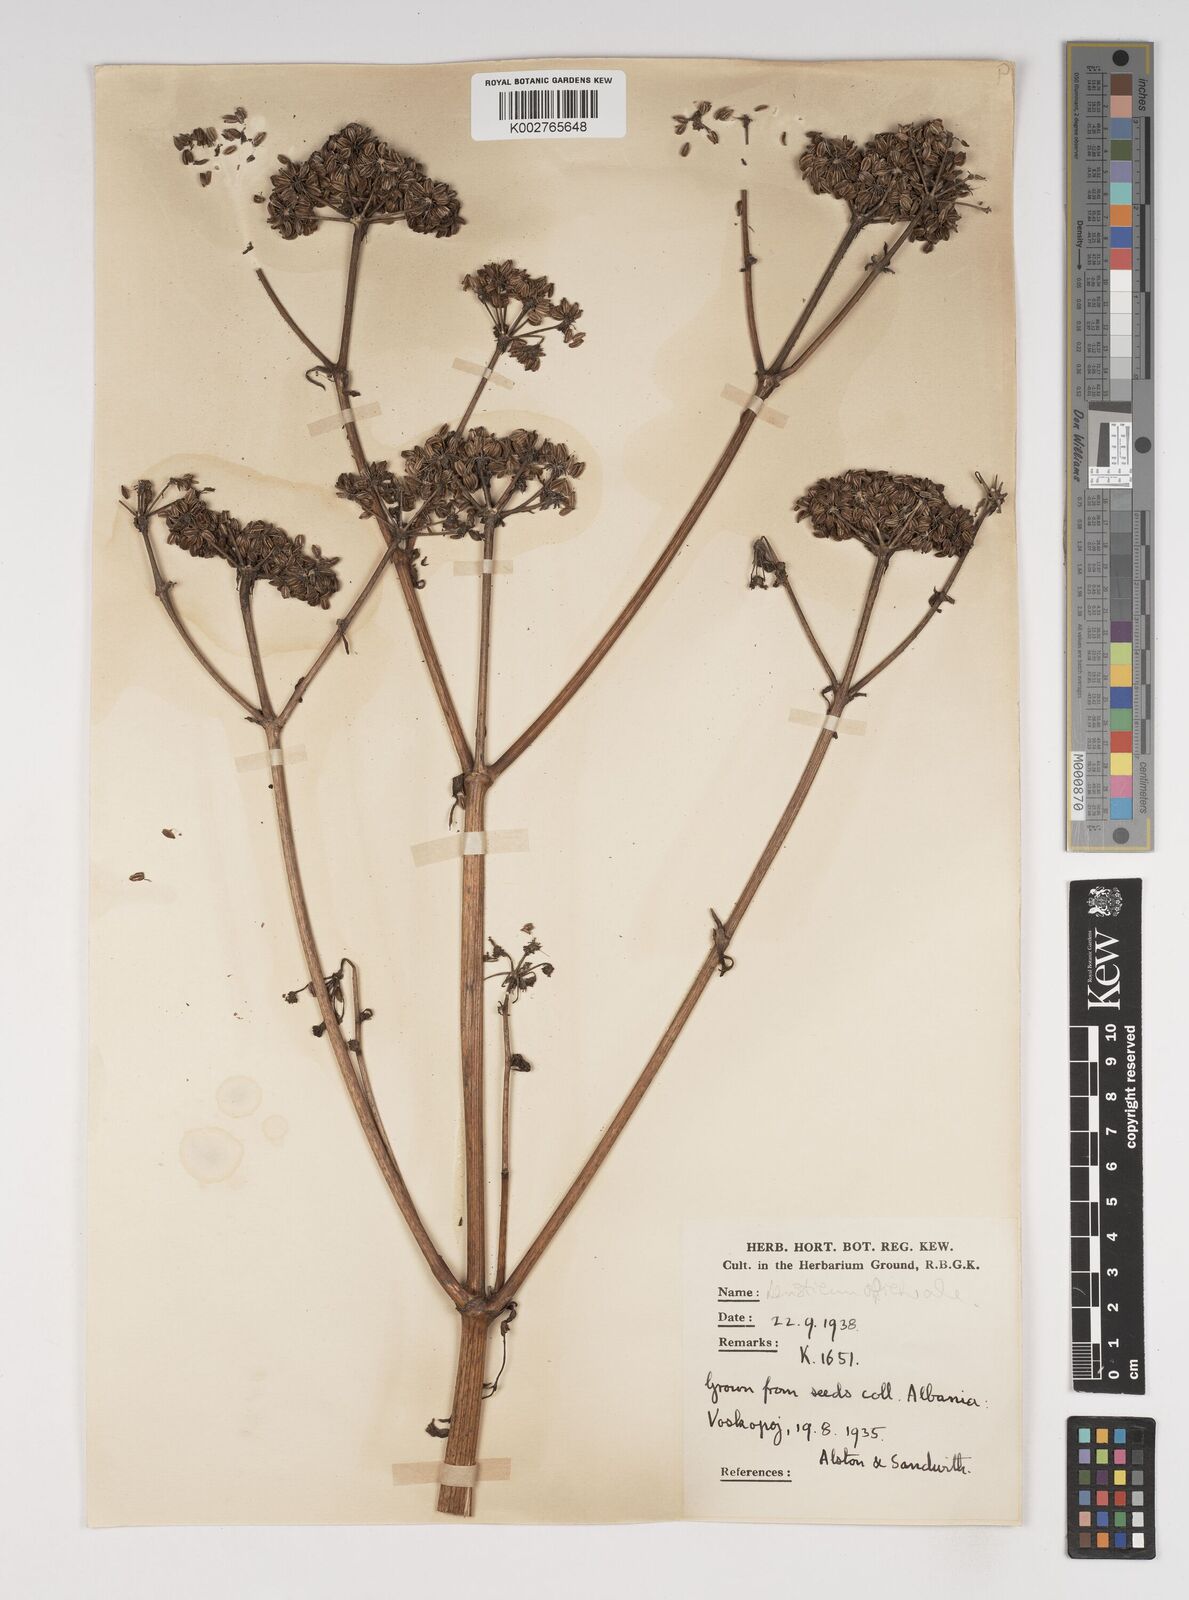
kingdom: Plantae
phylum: Tracheophyta
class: Magnoliopsida
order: Apiales
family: Apiaceae
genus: Levisticum
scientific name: Levisticum officinale
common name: Lovage
